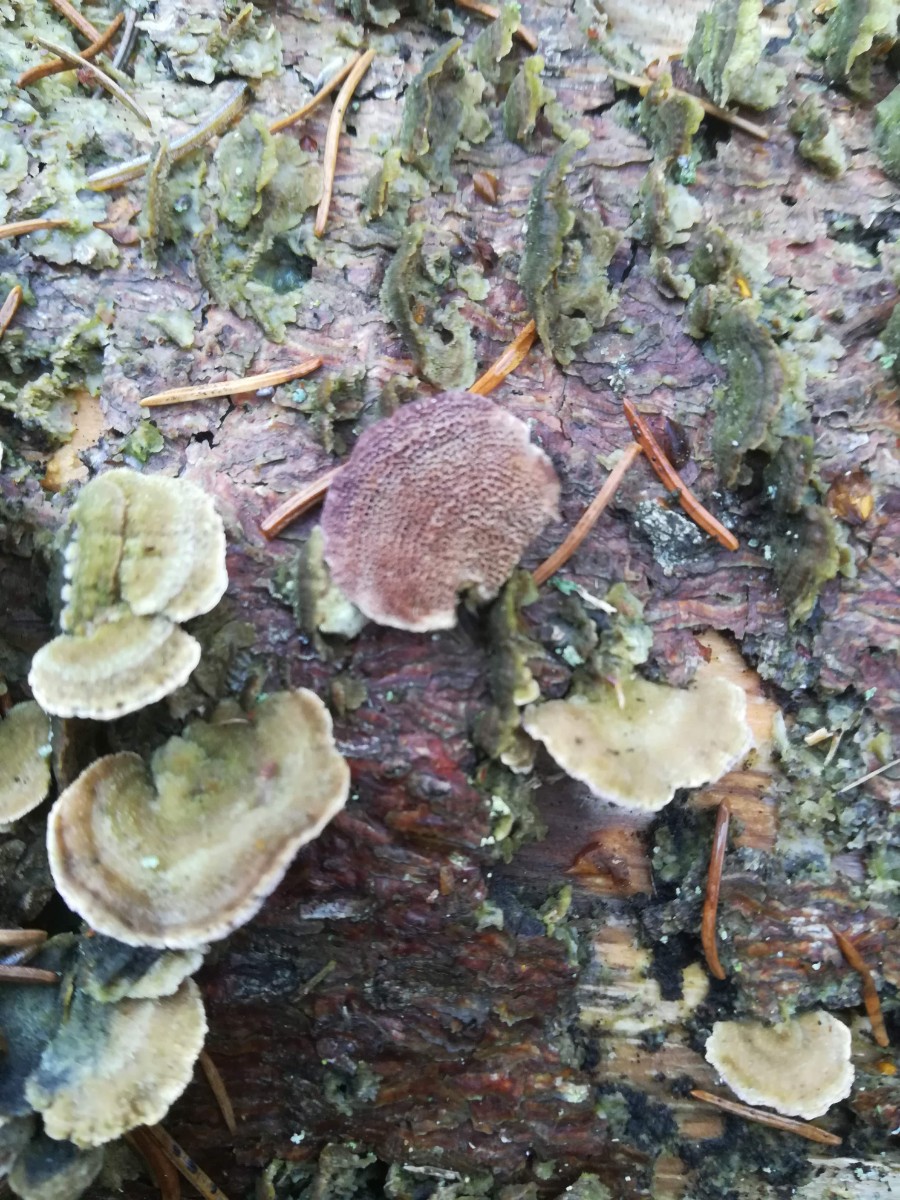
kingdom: Fungi
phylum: Basidiomycota
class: Agaricomycetes
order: Hymenochaetales
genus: Trichaptum
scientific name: Trichaptum abietinum
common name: almindelig violporesvamp
